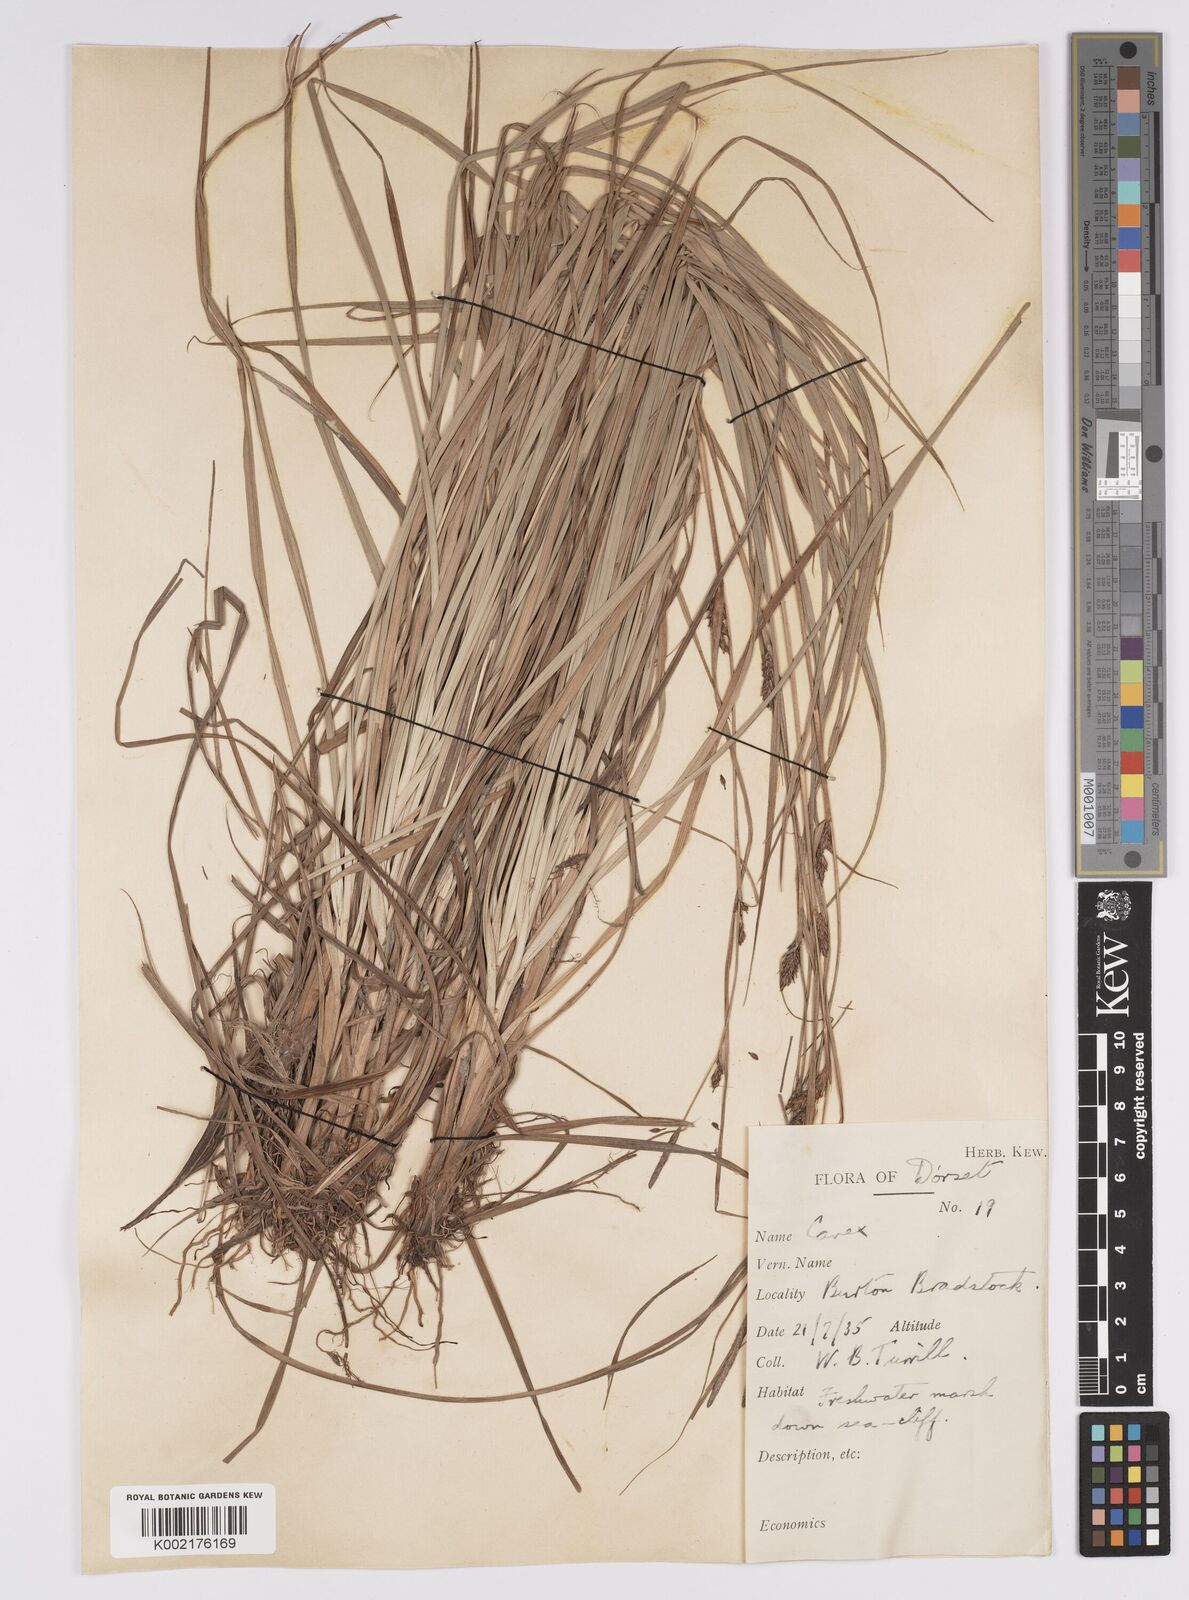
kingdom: Plantae
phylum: Tracheophyta
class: Liliopsida
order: Poales
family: Cyperaceae
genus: Carex
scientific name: Carex distans
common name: Distant sedge
